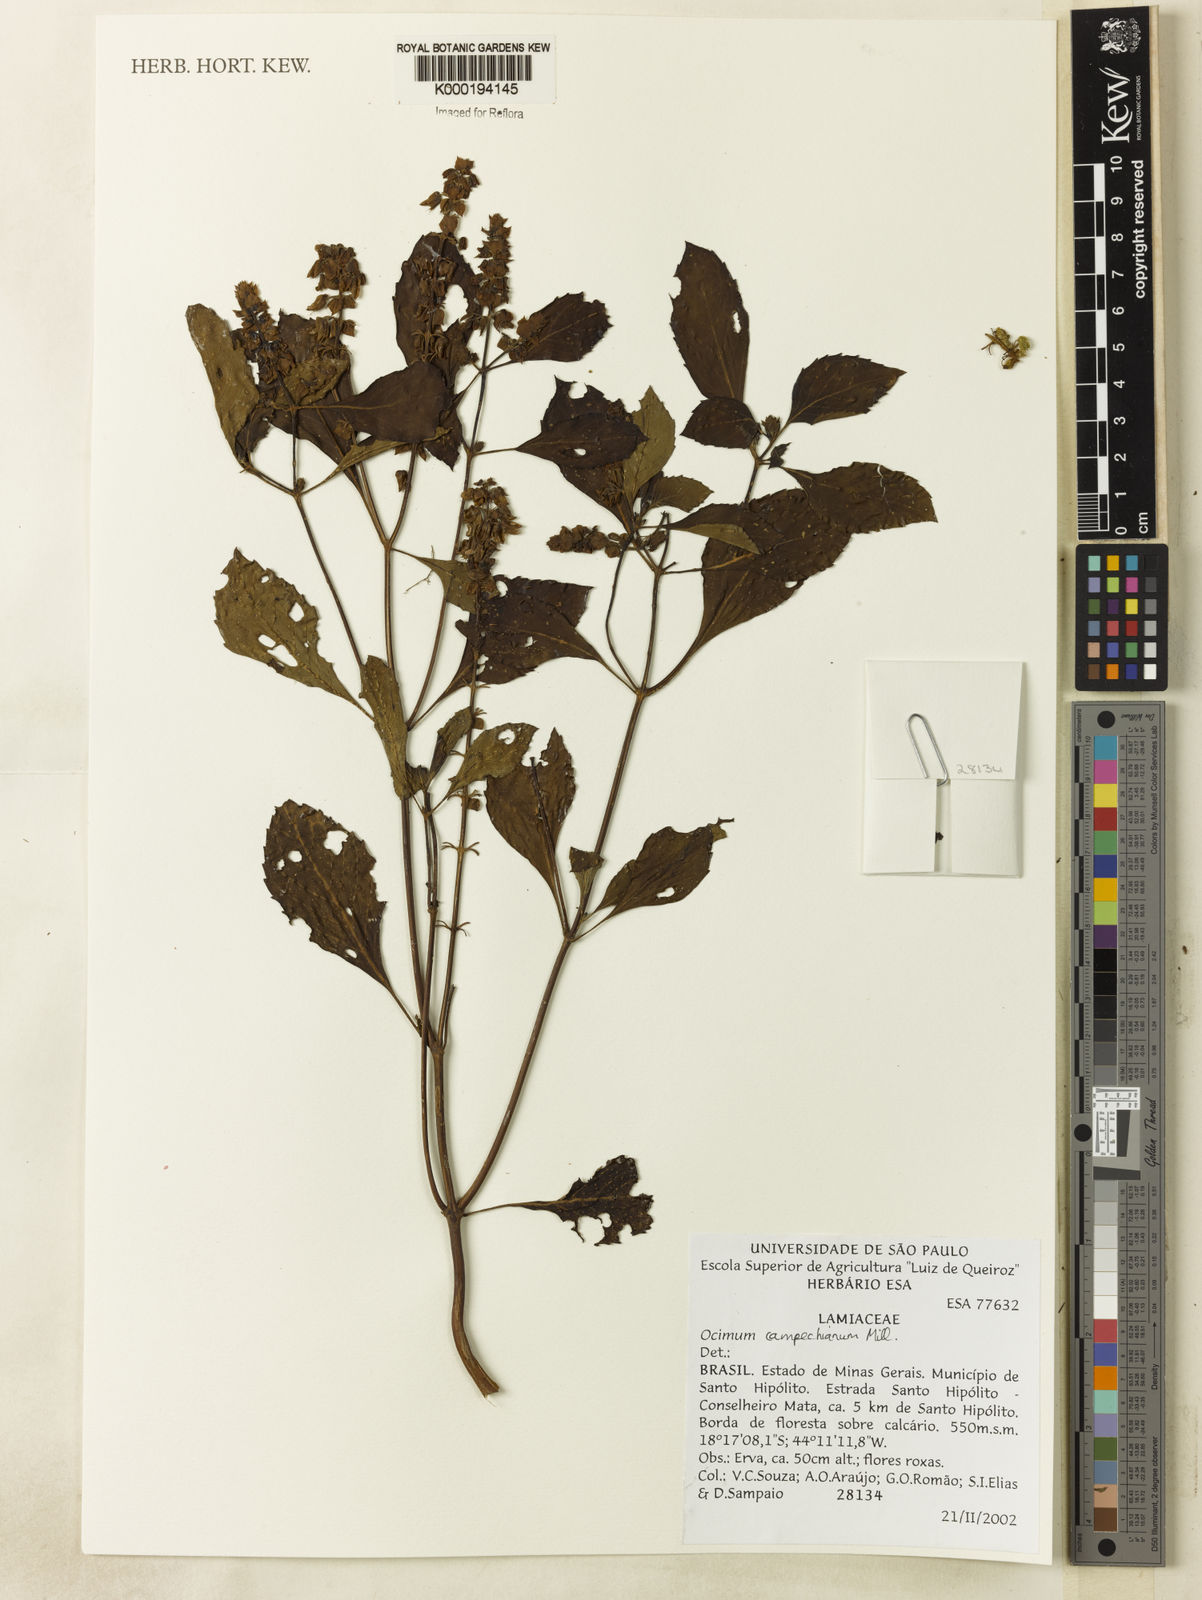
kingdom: Plantae
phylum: Tracheophyta
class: Magnoliopsida
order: Lamiales
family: Lamiaceae
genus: Ocimum
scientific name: Ocimum campechianum
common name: Mosquito basil
